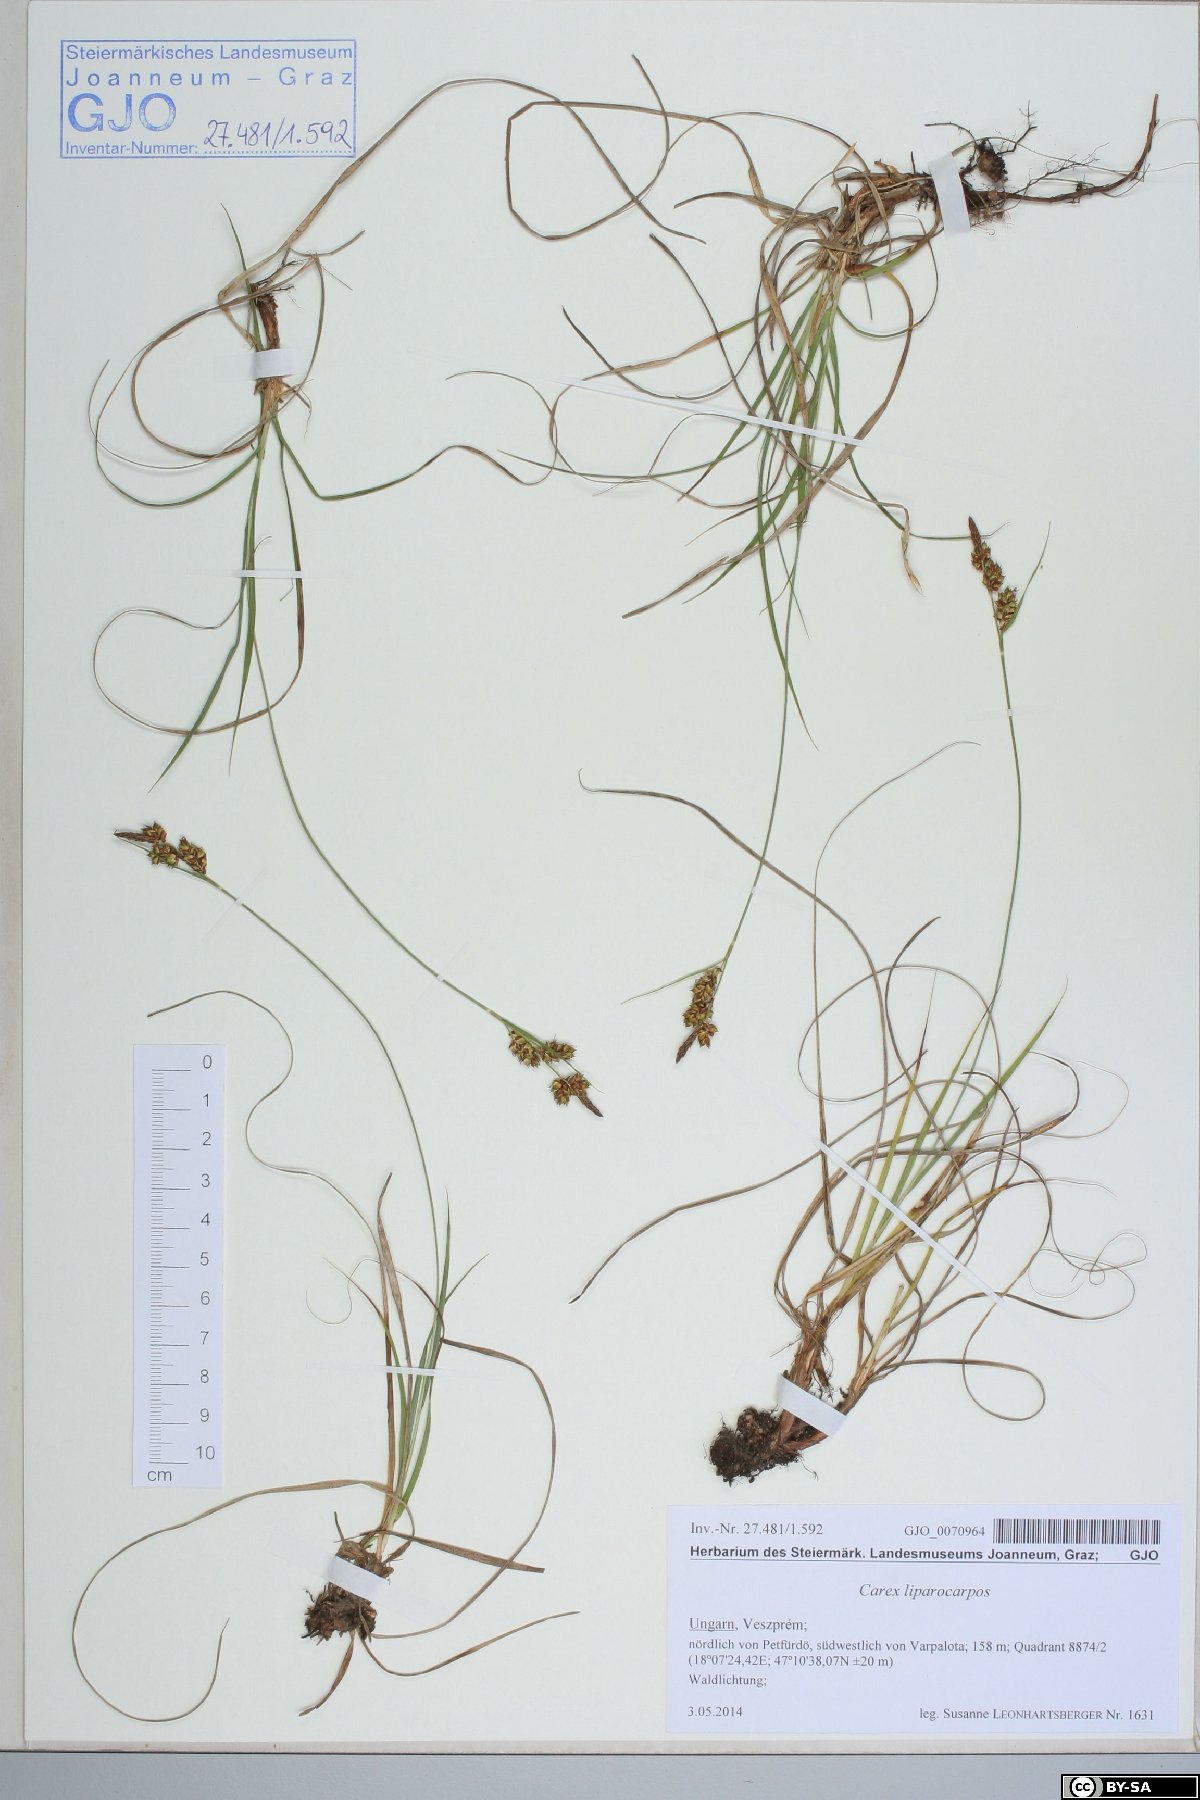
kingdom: Plantae
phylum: Tracheophyta
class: Liliopsida
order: Poales
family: Cyperaceae
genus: Carex
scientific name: Carex liparocarpos
